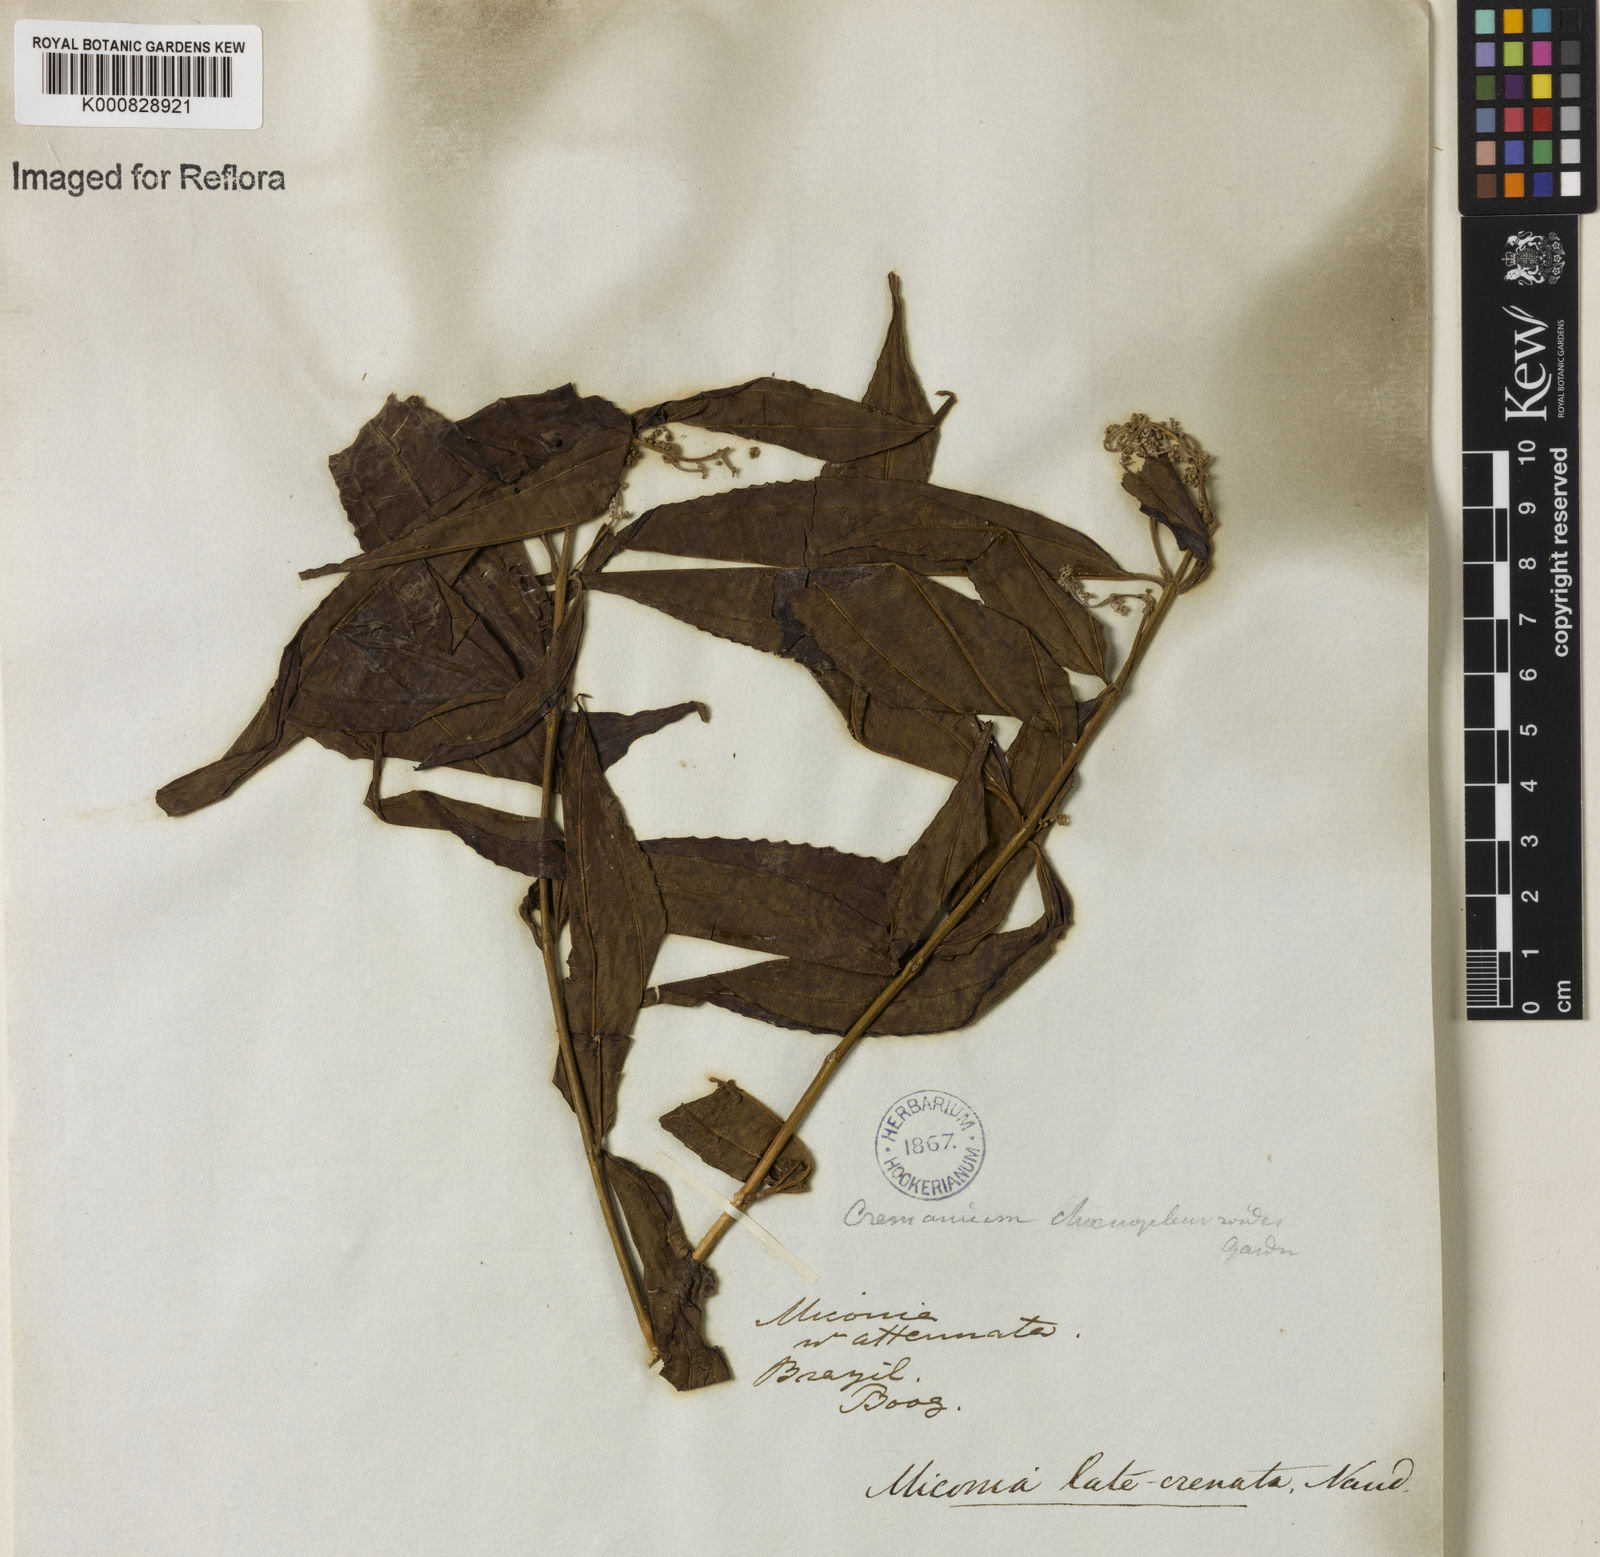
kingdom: Plantae
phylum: Tracheophyta
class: Magnoliopsida
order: Myrtales
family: Melastomataceae
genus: Miconia
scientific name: Miconia latecrenata
